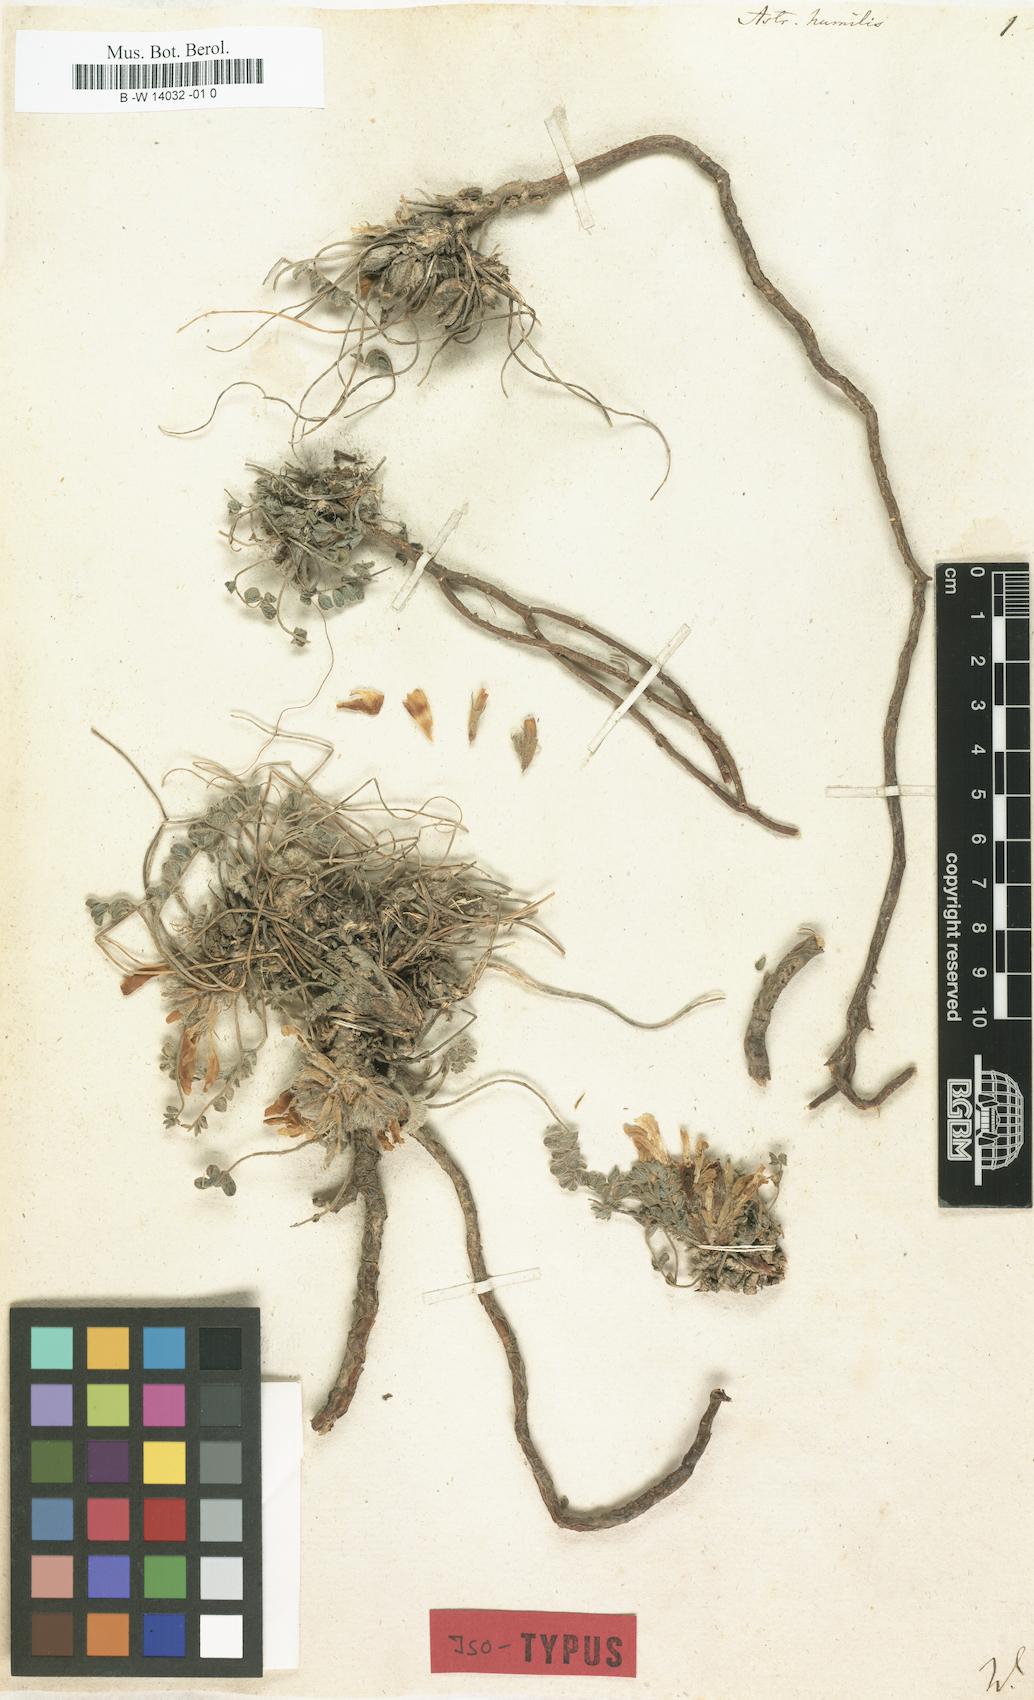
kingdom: Plantae
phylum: Tracheophyta
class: Magnoliopsida
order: Fabales
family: Fabaceae
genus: Astragalus
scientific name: Astragalus humilis
